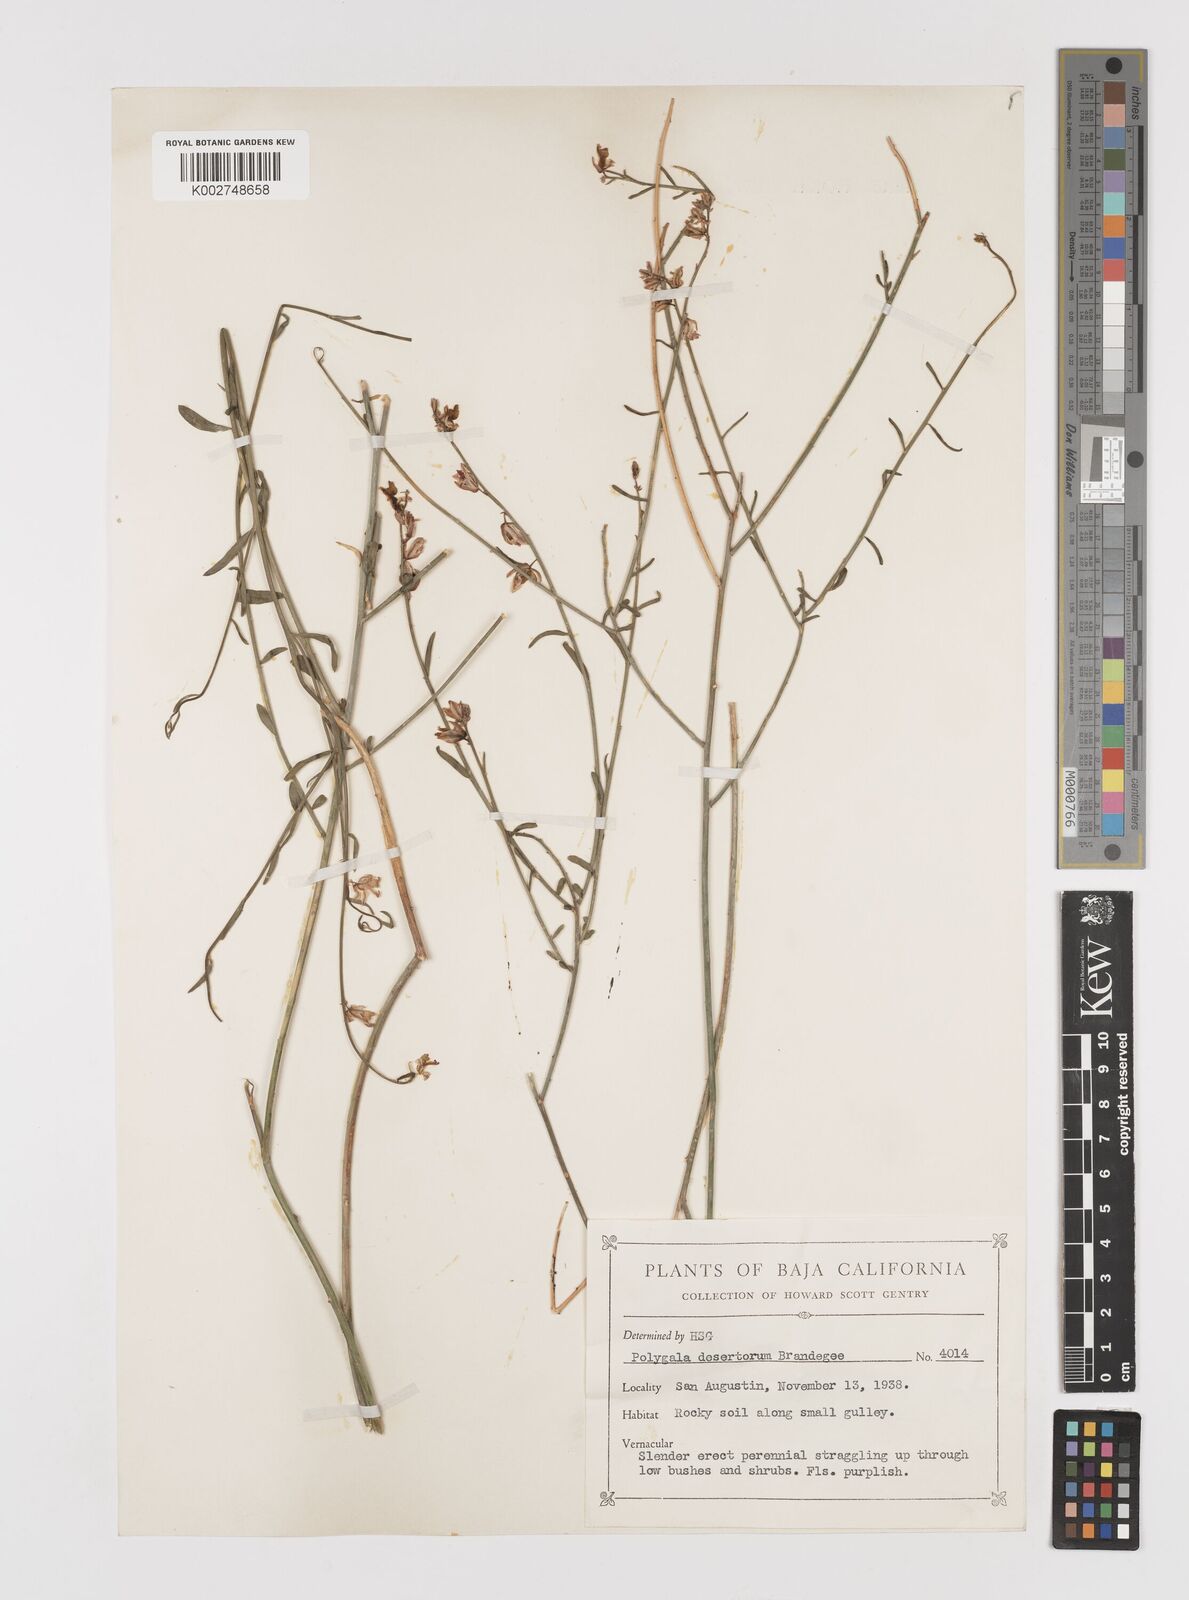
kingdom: Plantae
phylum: Tracheophyta
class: Magnoliopsida
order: Fabales
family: Polygalaceae
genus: Rhinotropis
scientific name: Rhinotropis desertorum
